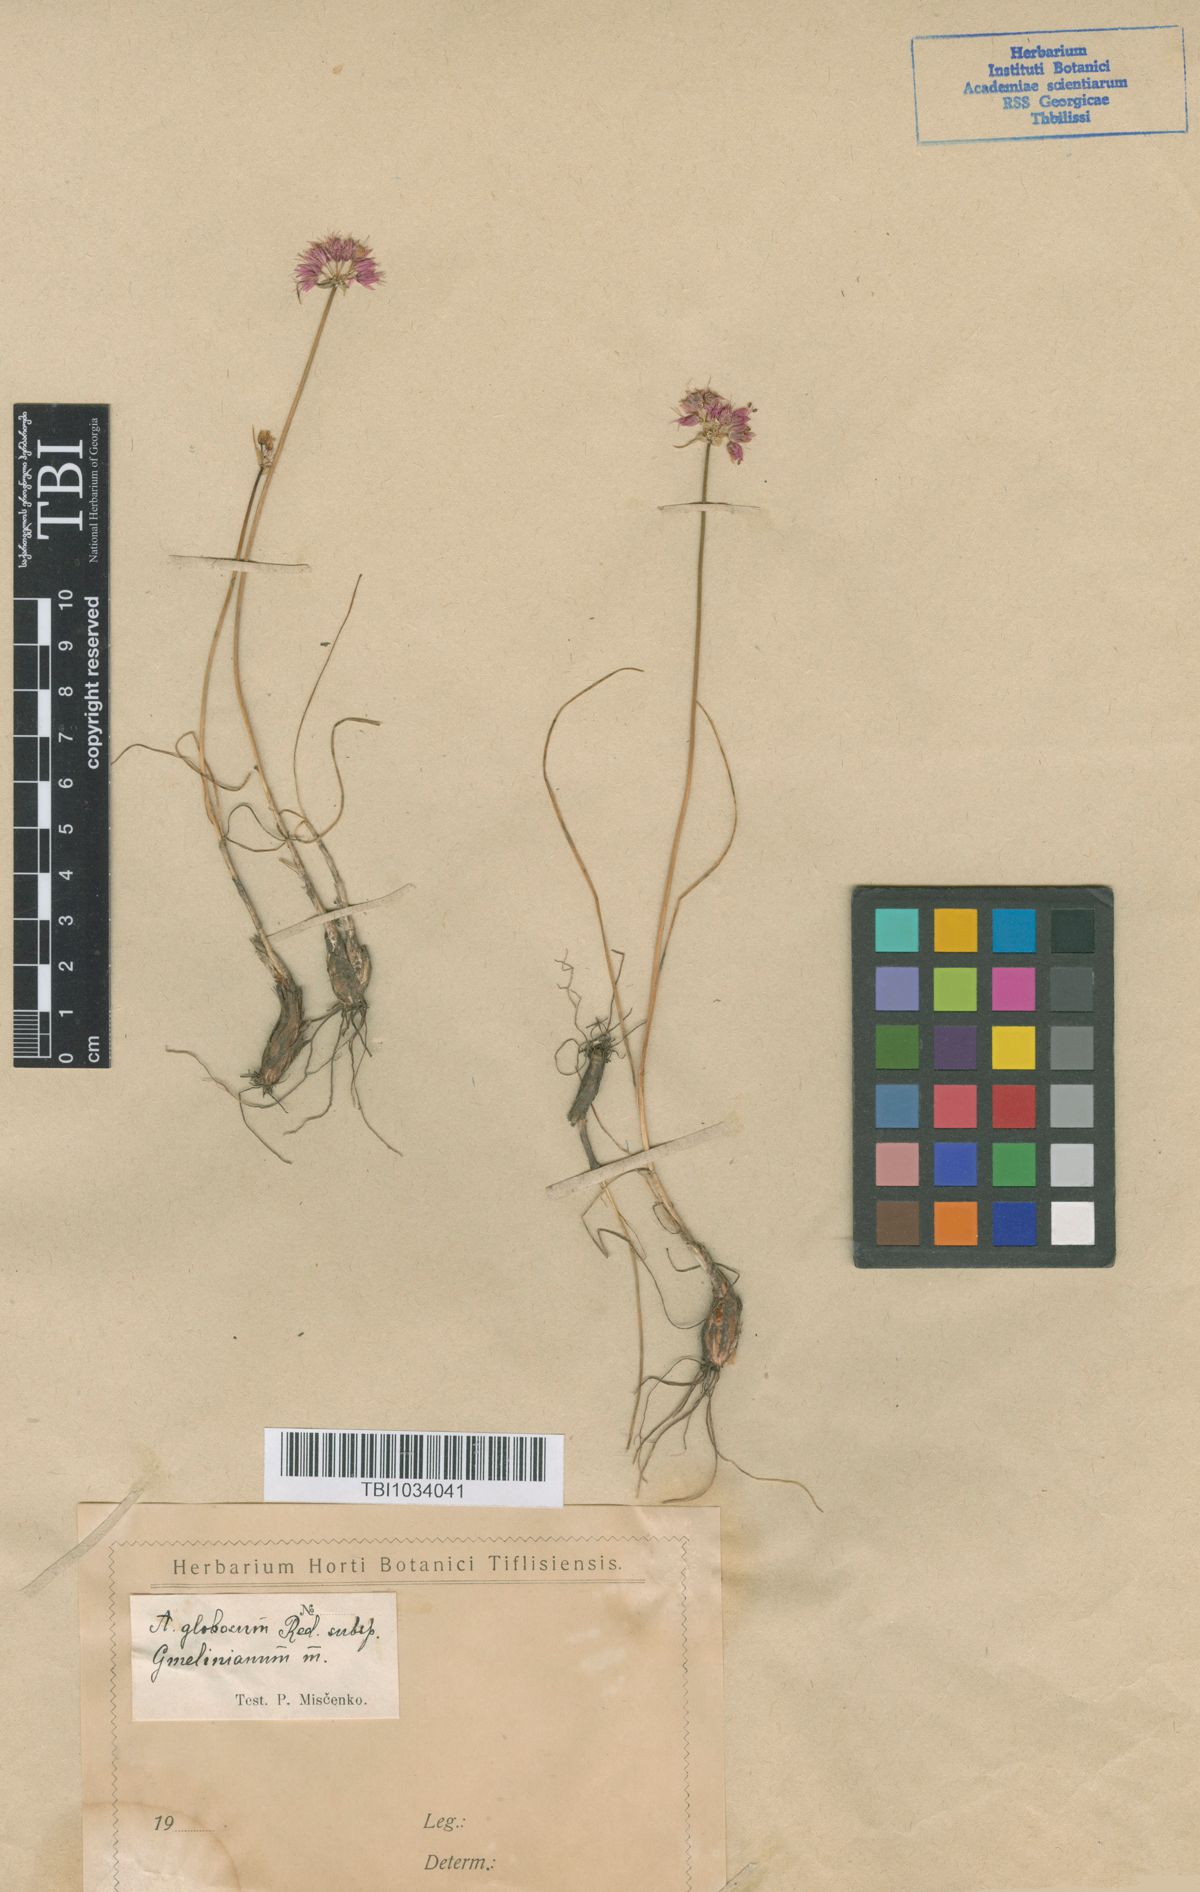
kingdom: Plantae
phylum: Tracheophyta
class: Liliopsida
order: Asparagales
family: Amaryllidaceae
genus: Allium
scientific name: Allium saxatile
